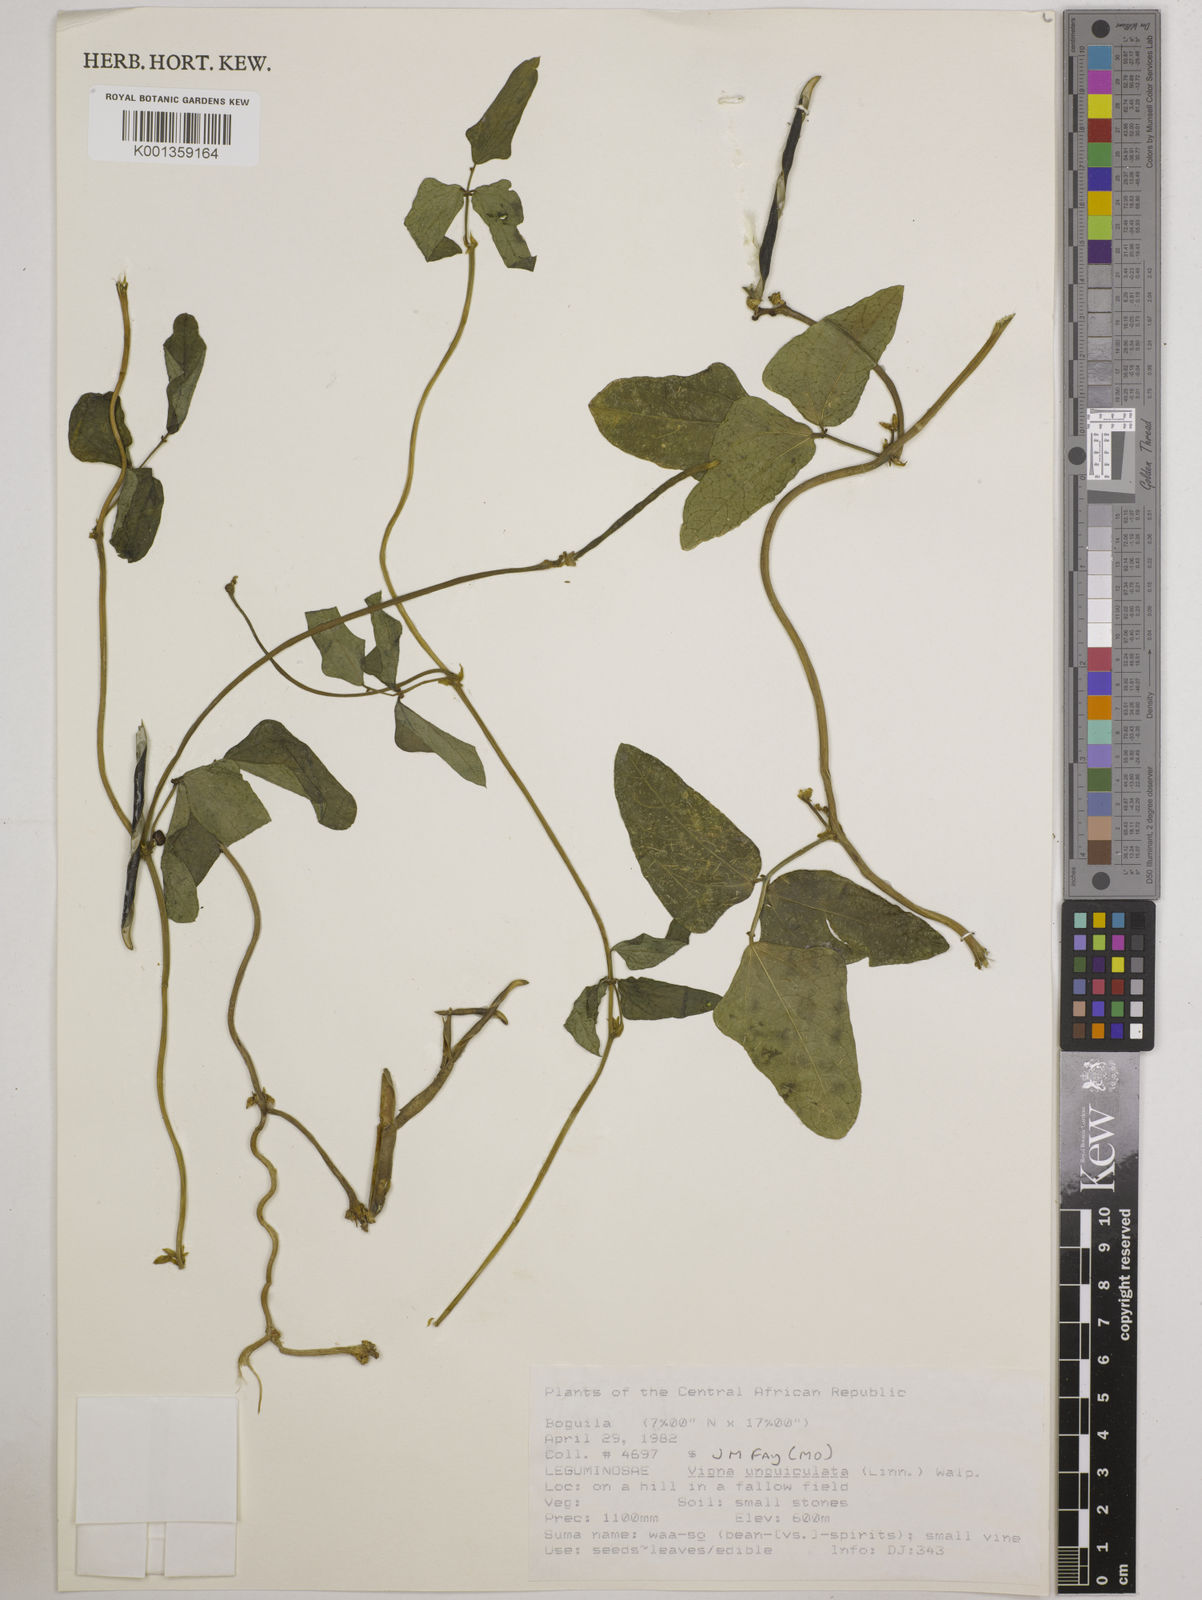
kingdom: Plantae
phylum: Tracheophyta
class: Magnoliopsida
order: Fabales
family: Fabaceae
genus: Vigna
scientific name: Vigna
